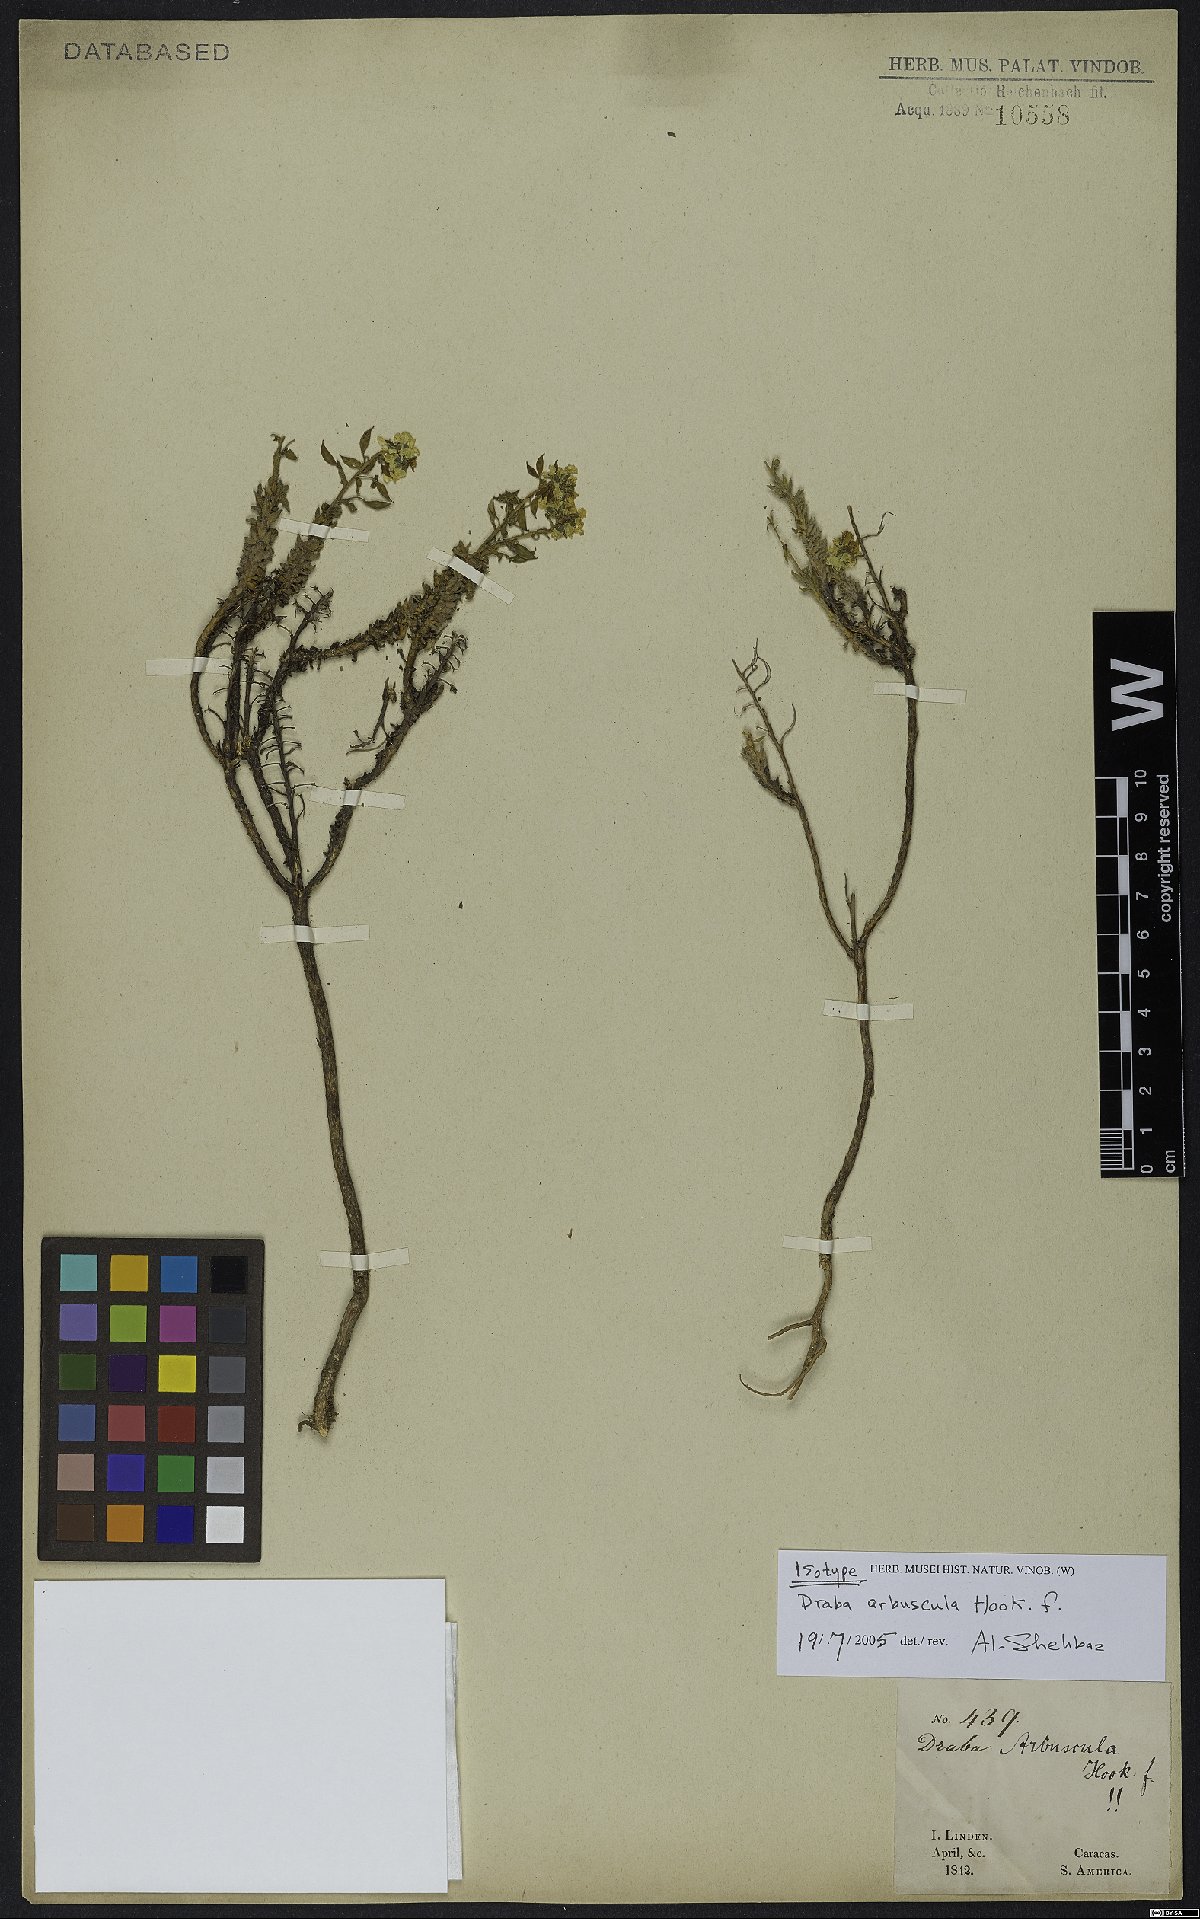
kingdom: Plantae
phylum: Tracheophyta
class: Magnoliopsida
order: Brassicales
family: Brassicaceae
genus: Draba
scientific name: Draba arbuscula
